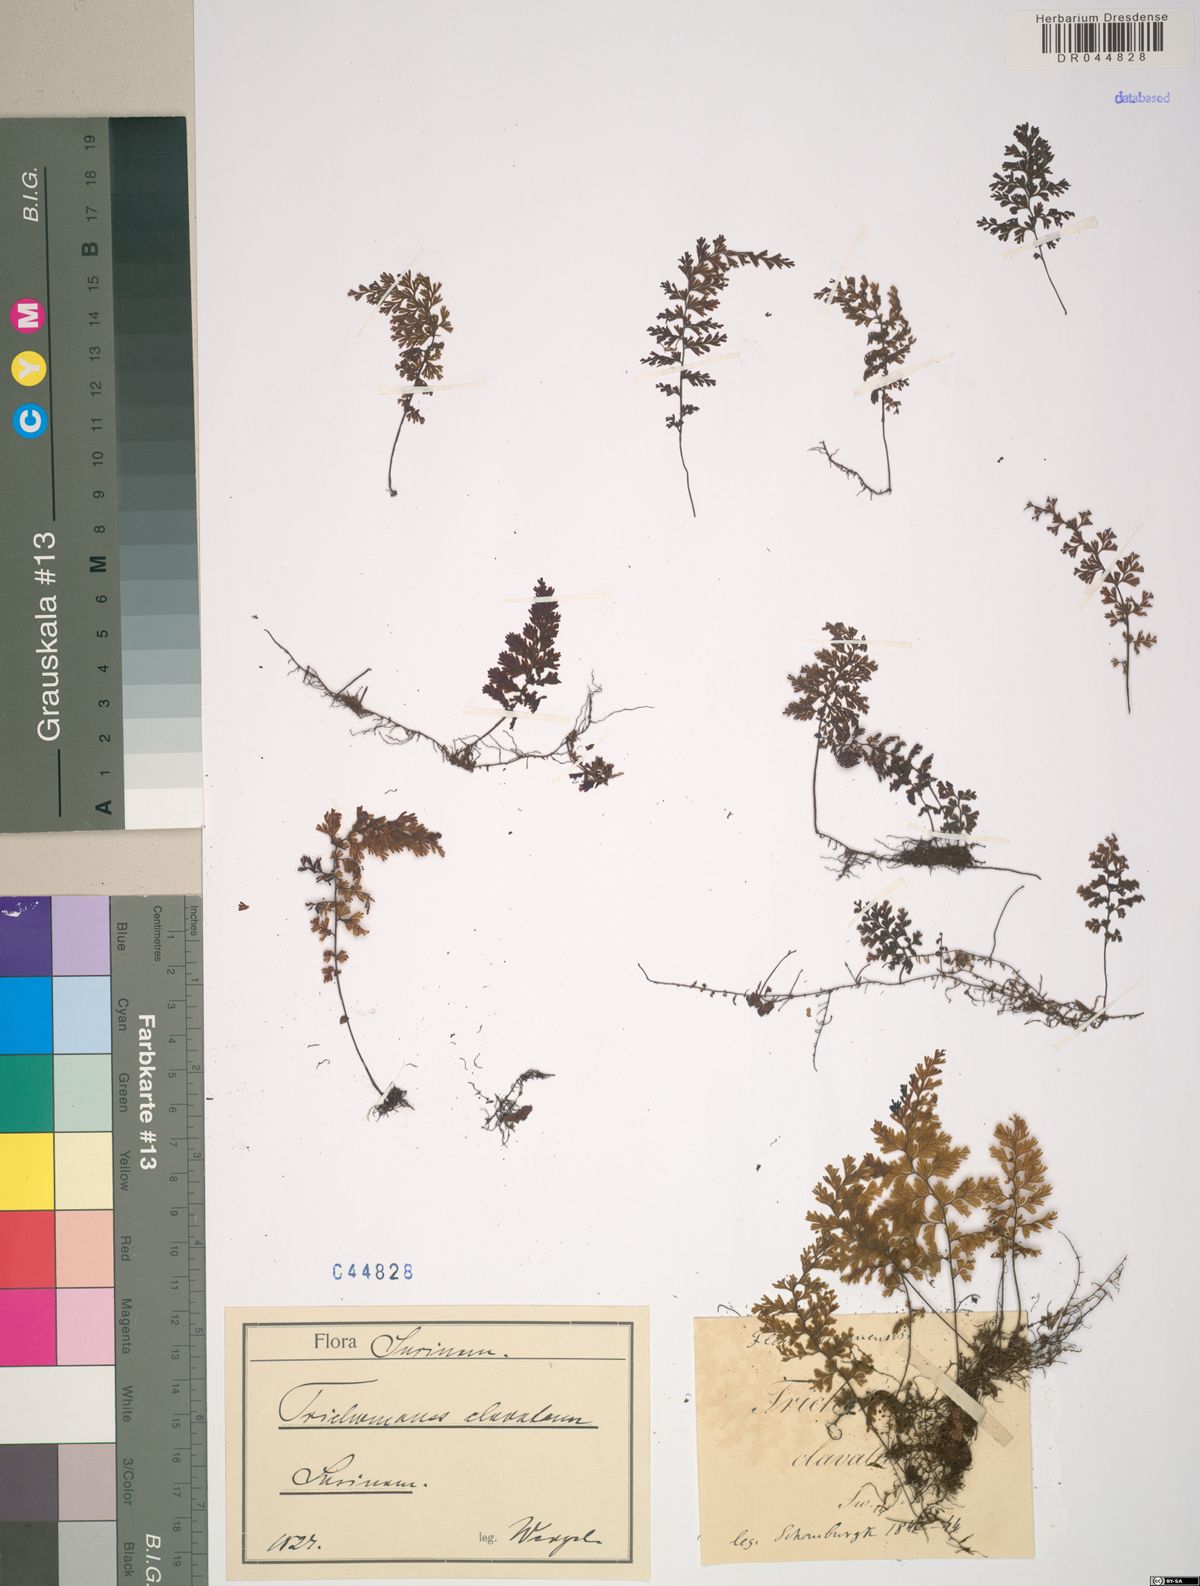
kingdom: Plantae
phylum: Tracheophyta
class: Polypodiopsida
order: Hymenophyllales
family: Hymenophyllaceae
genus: Hymenophyllum
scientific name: Hymenophyllum polyanthos
